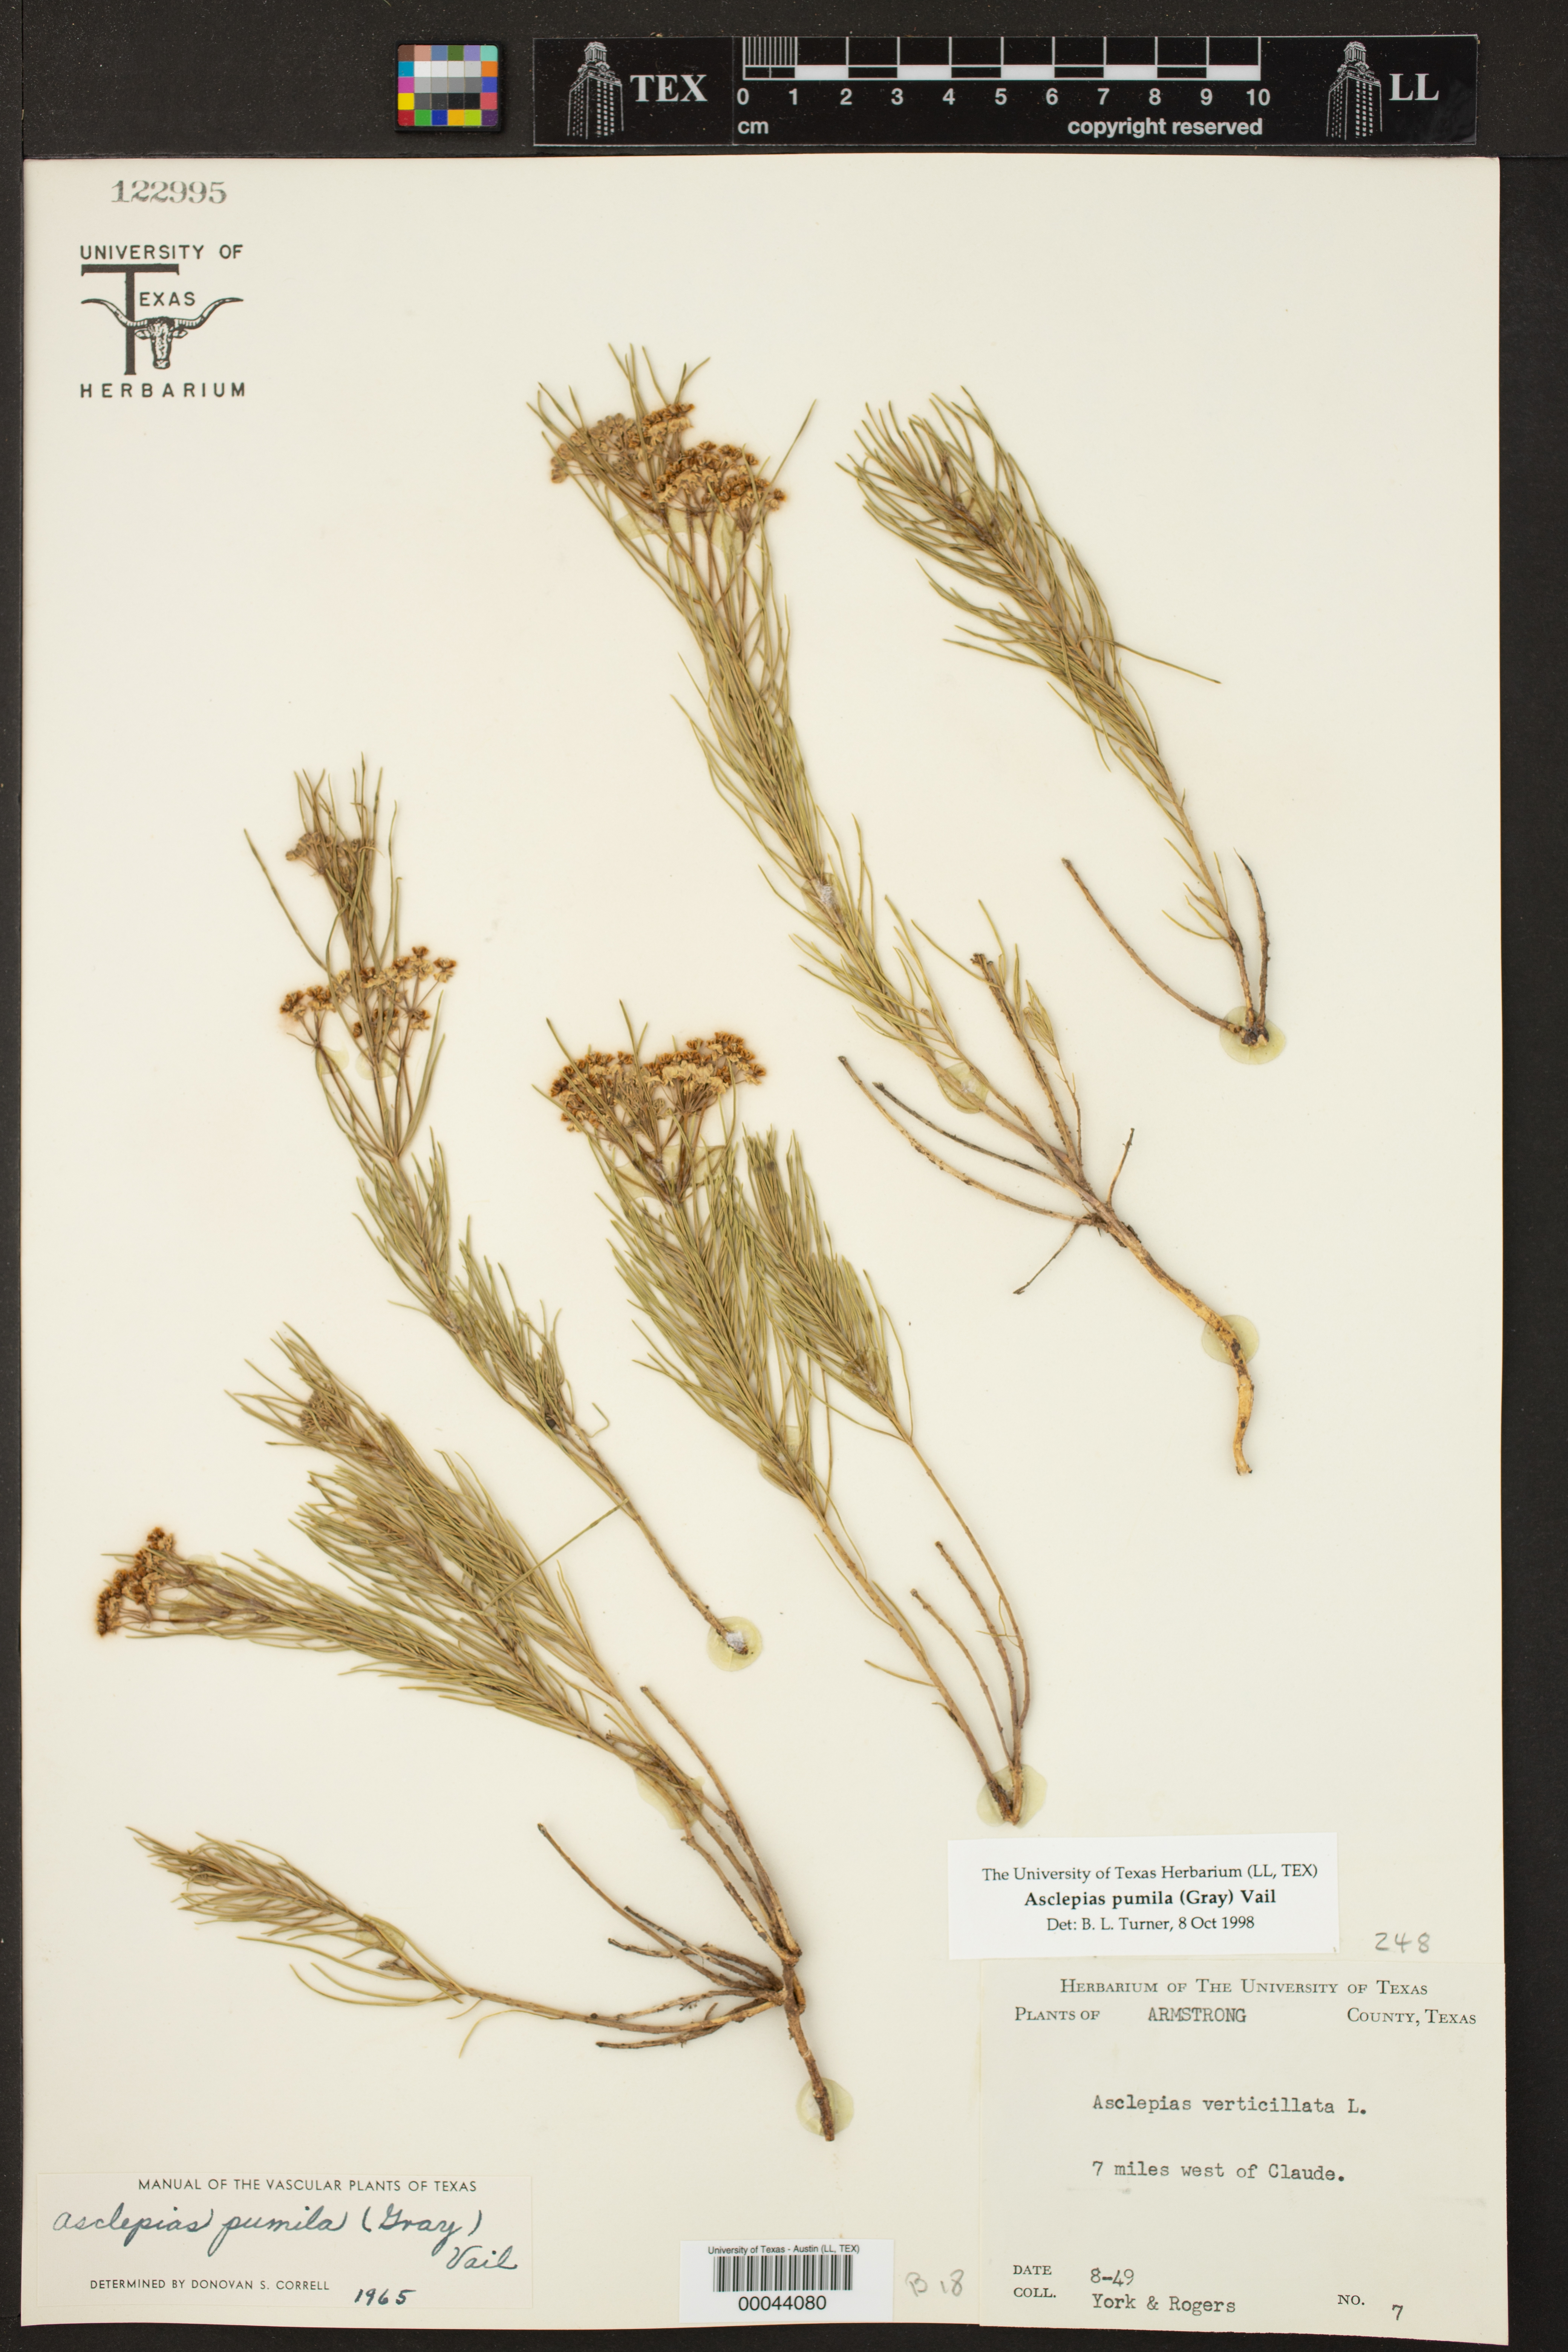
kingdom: Plantae
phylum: Tracheophyta
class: Magnoliopsida
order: Gentianales
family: Apocynaceae
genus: Asclepias
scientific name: Asclepias pumila
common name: Dwarf milkweed
